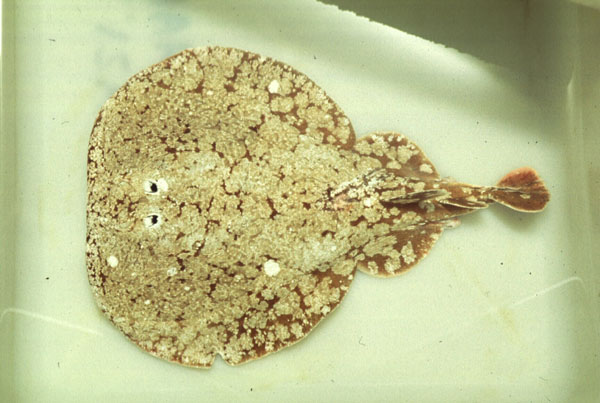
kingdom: Animalia
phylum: Chordata
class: Elasmobranchii
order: Torpediniformes
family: Torpedinidae
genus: Torpedo
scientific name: Torpedo
